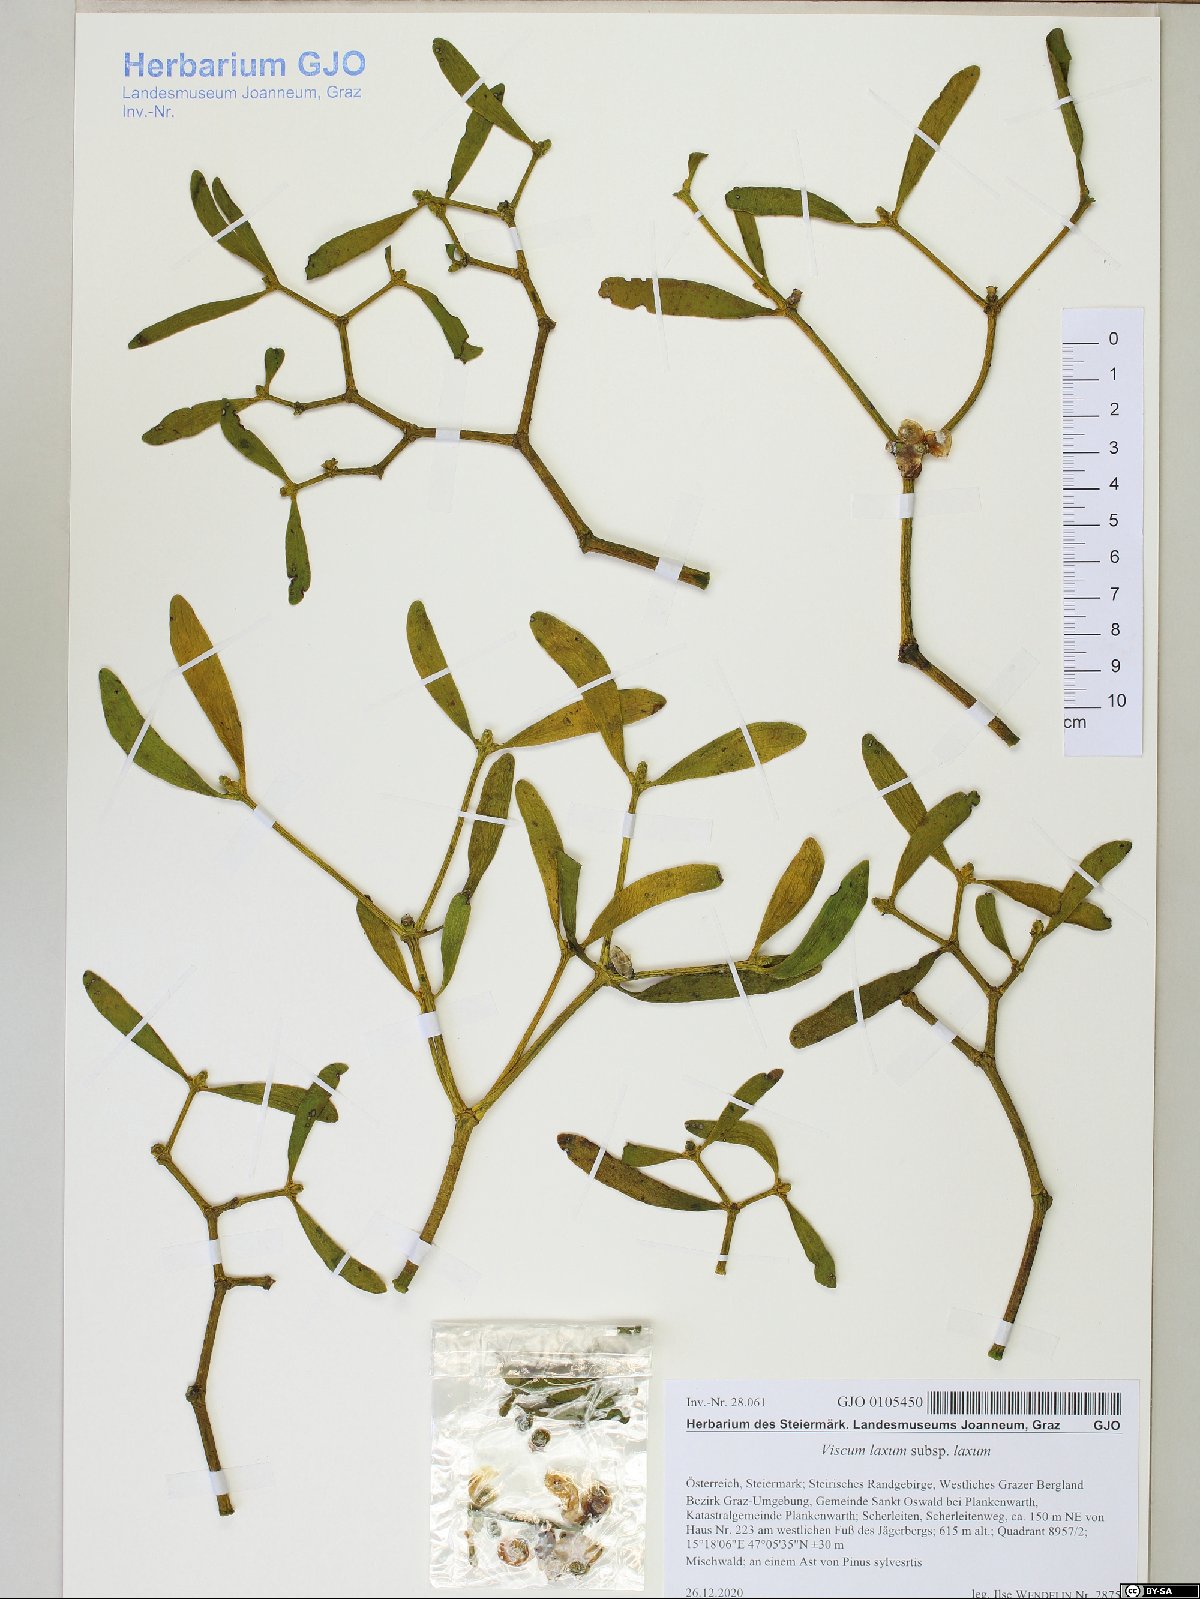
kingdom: Plantae
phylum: Tracheophyta
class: Magnoliopsida
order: Santalales
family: Viscaceae
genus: Viscum
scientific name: Viscum laxum
